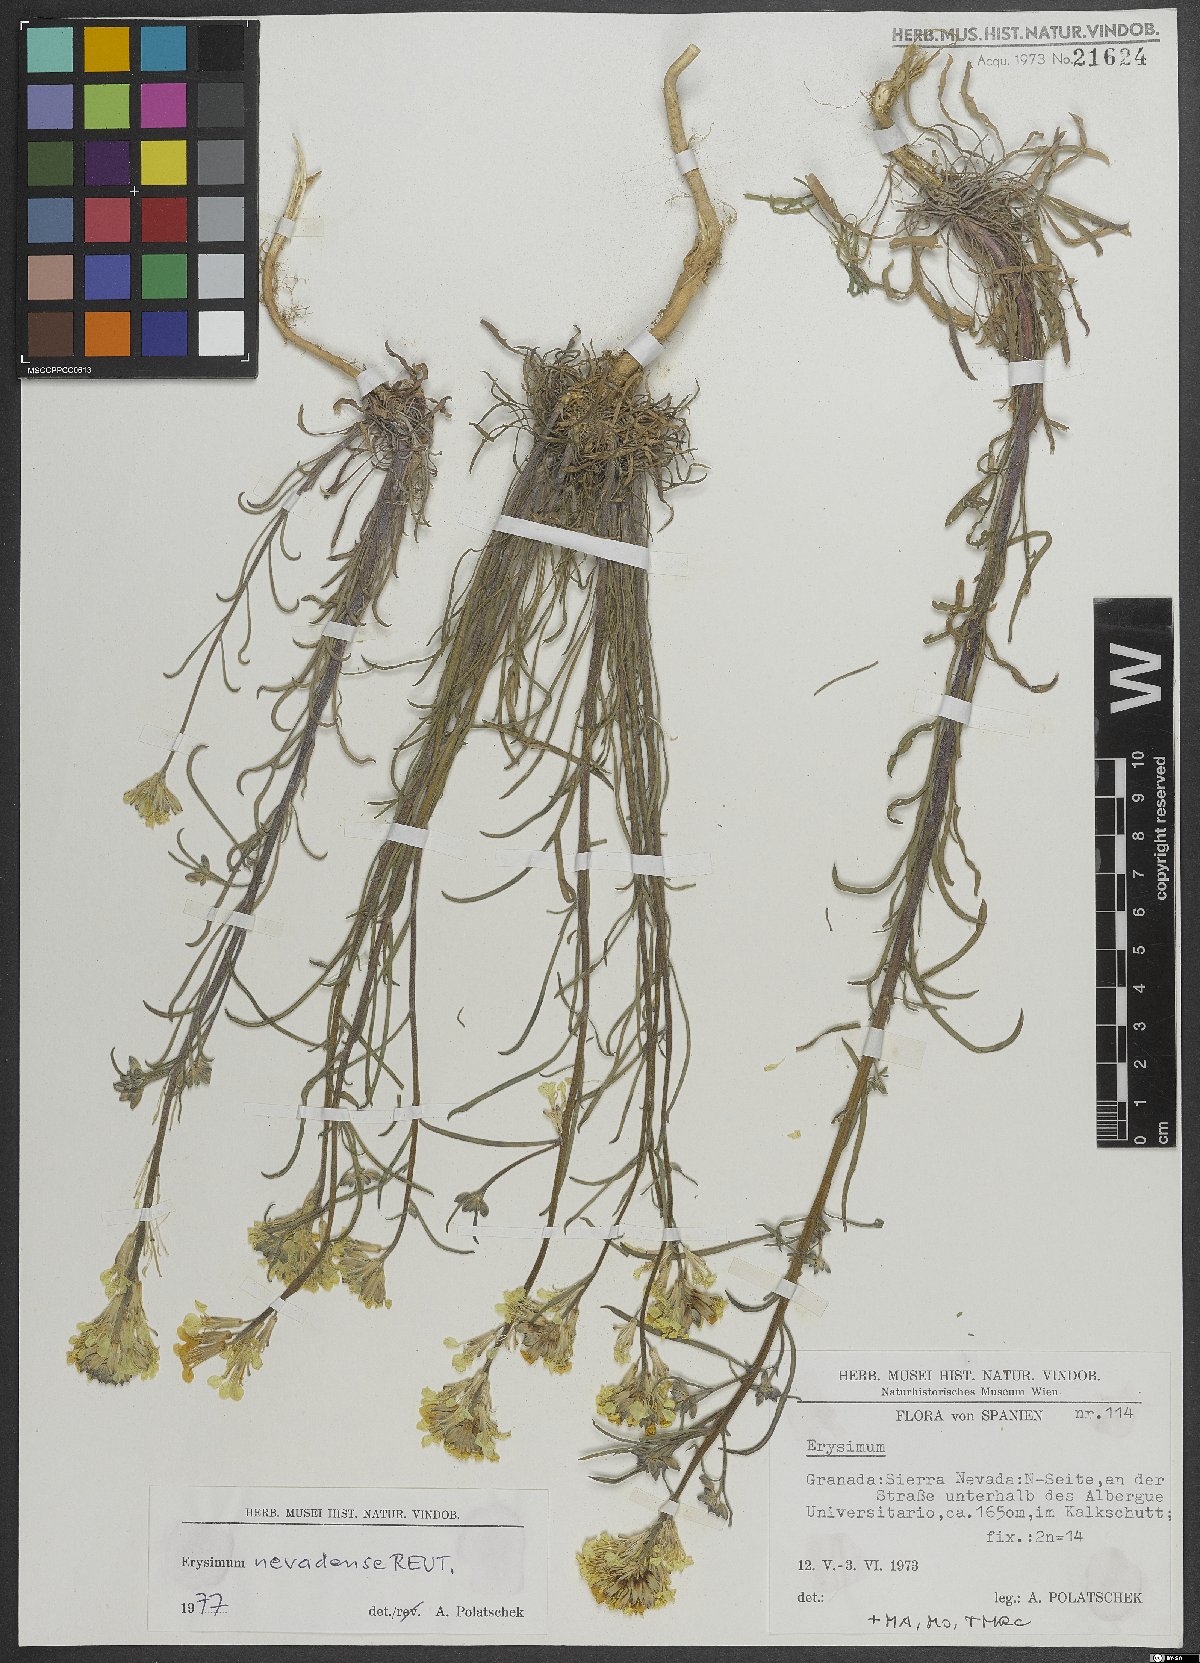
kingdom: Plantae
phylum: Tracheophyta
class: Magnoliopsida
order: Brassicales
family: Brassicaceae
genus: Erysimum
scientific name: Erysimum nevadense
